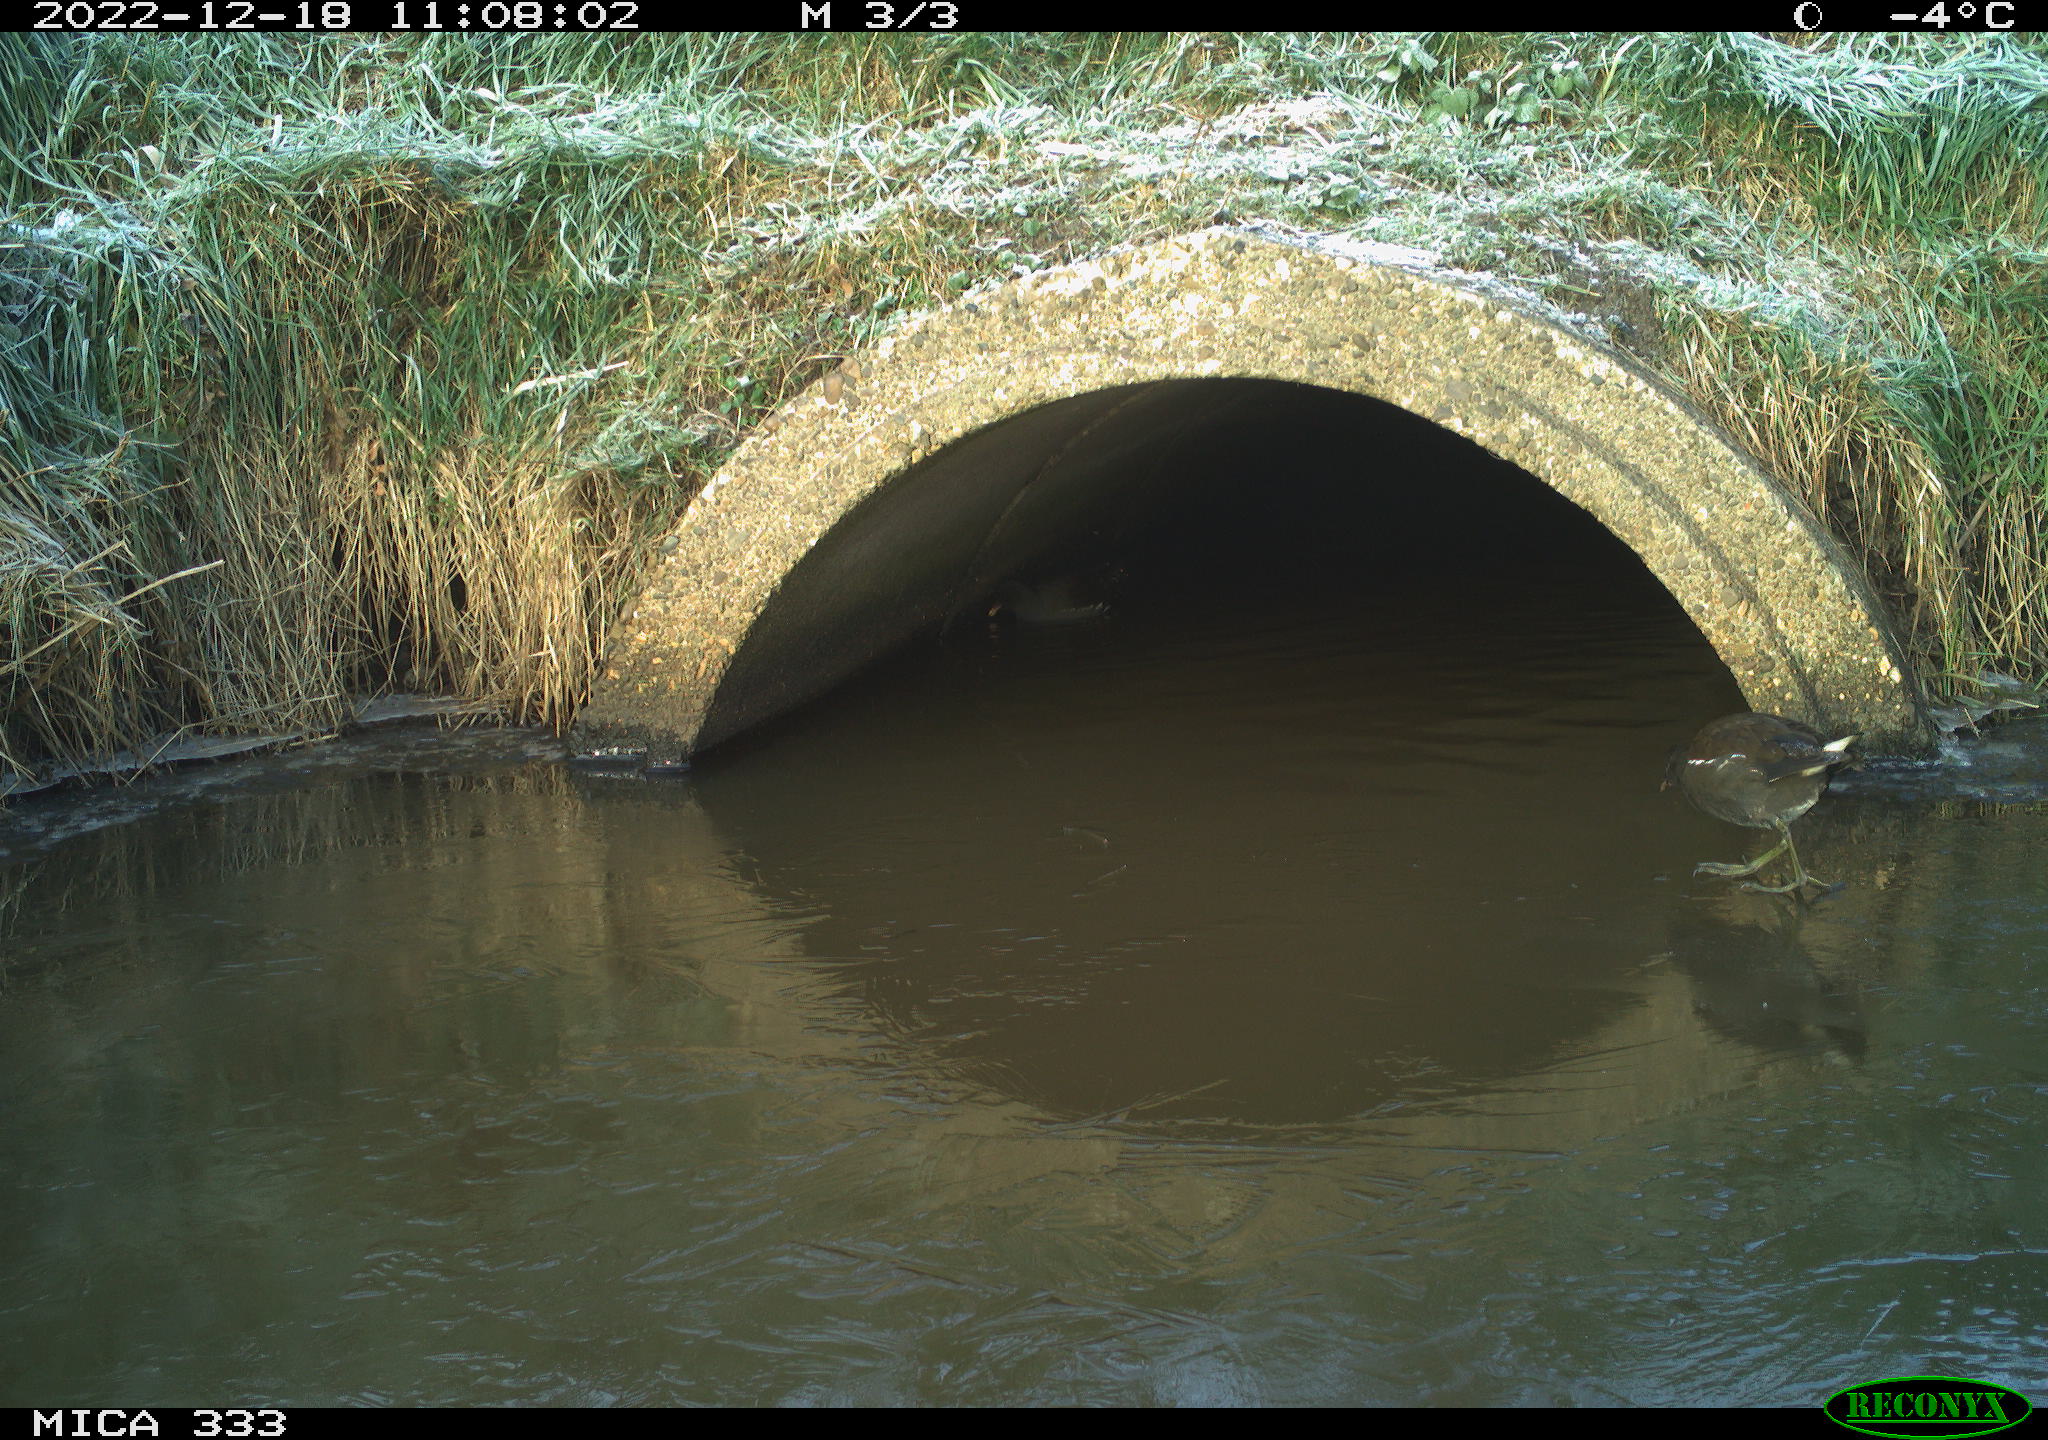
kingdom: Animalia
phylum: Chordata
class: Aves
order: Gruiformes
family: Rallidae
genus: Gallinula
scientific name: Gallinula chloropus
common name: Common moorhen
